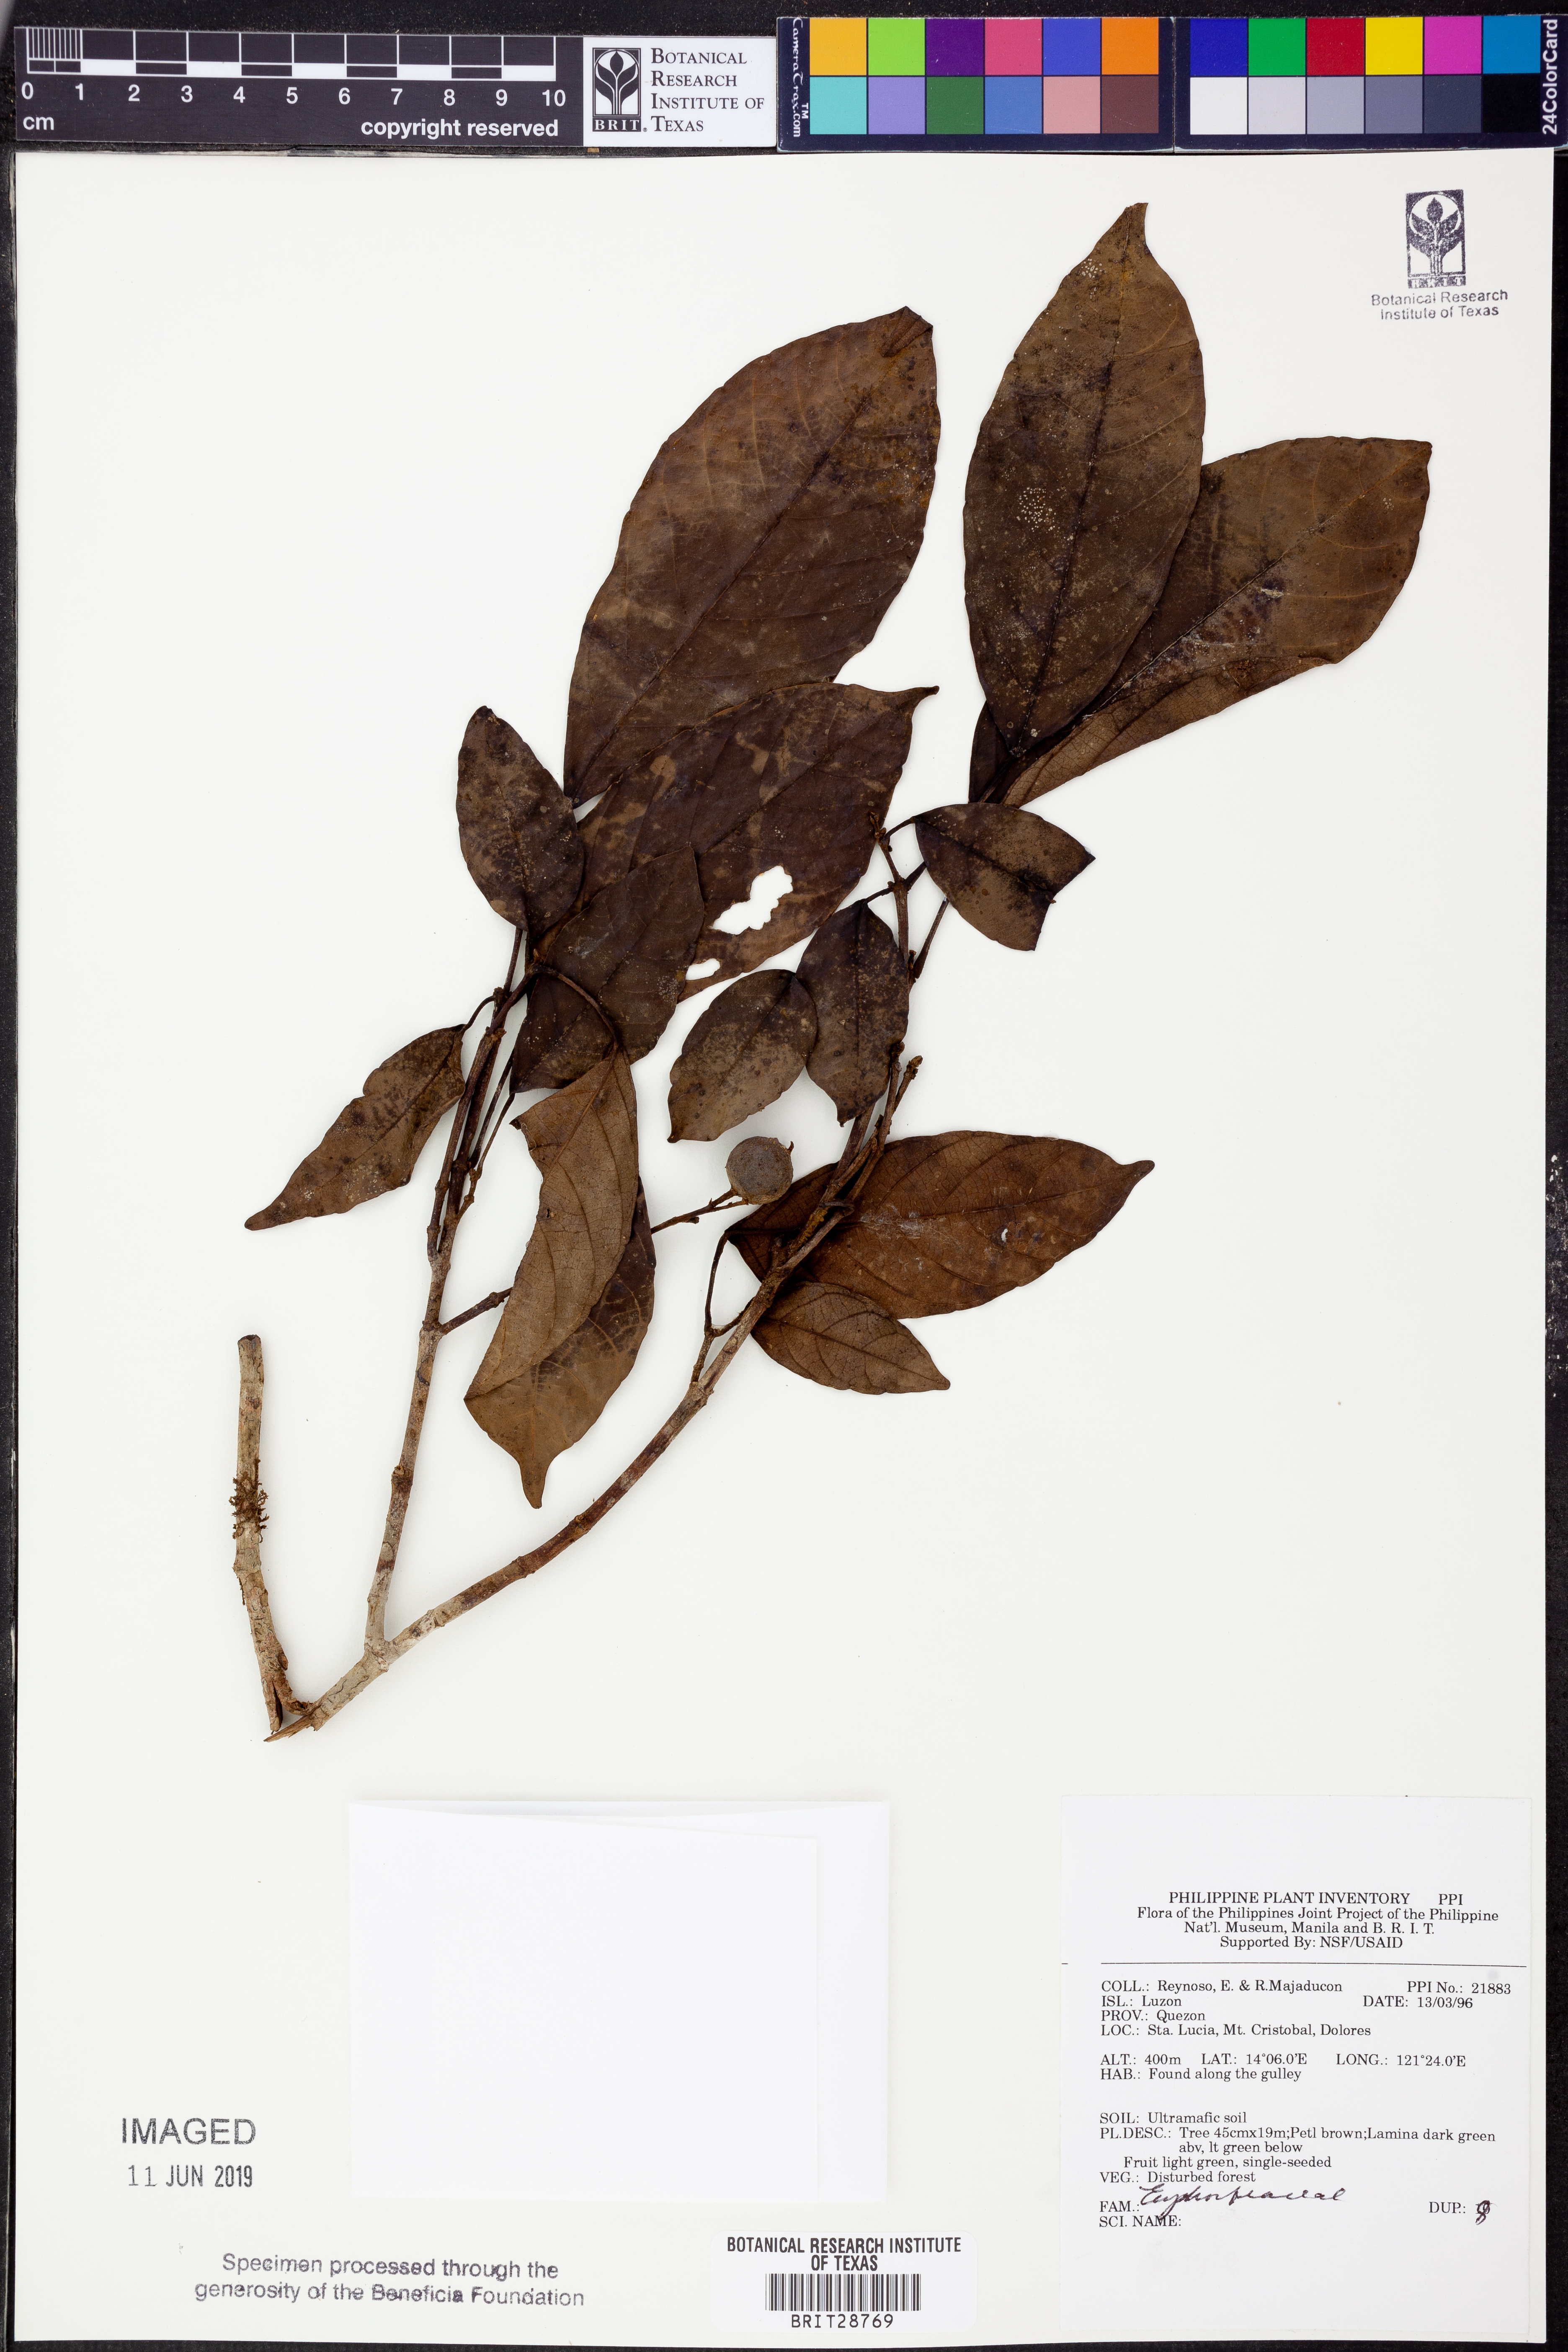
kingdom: Plantae
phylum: Tracheophyta
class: Magnoliopsida
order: Malpighiales
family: Euphorbiaceae
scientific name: Euphorbiaceae
